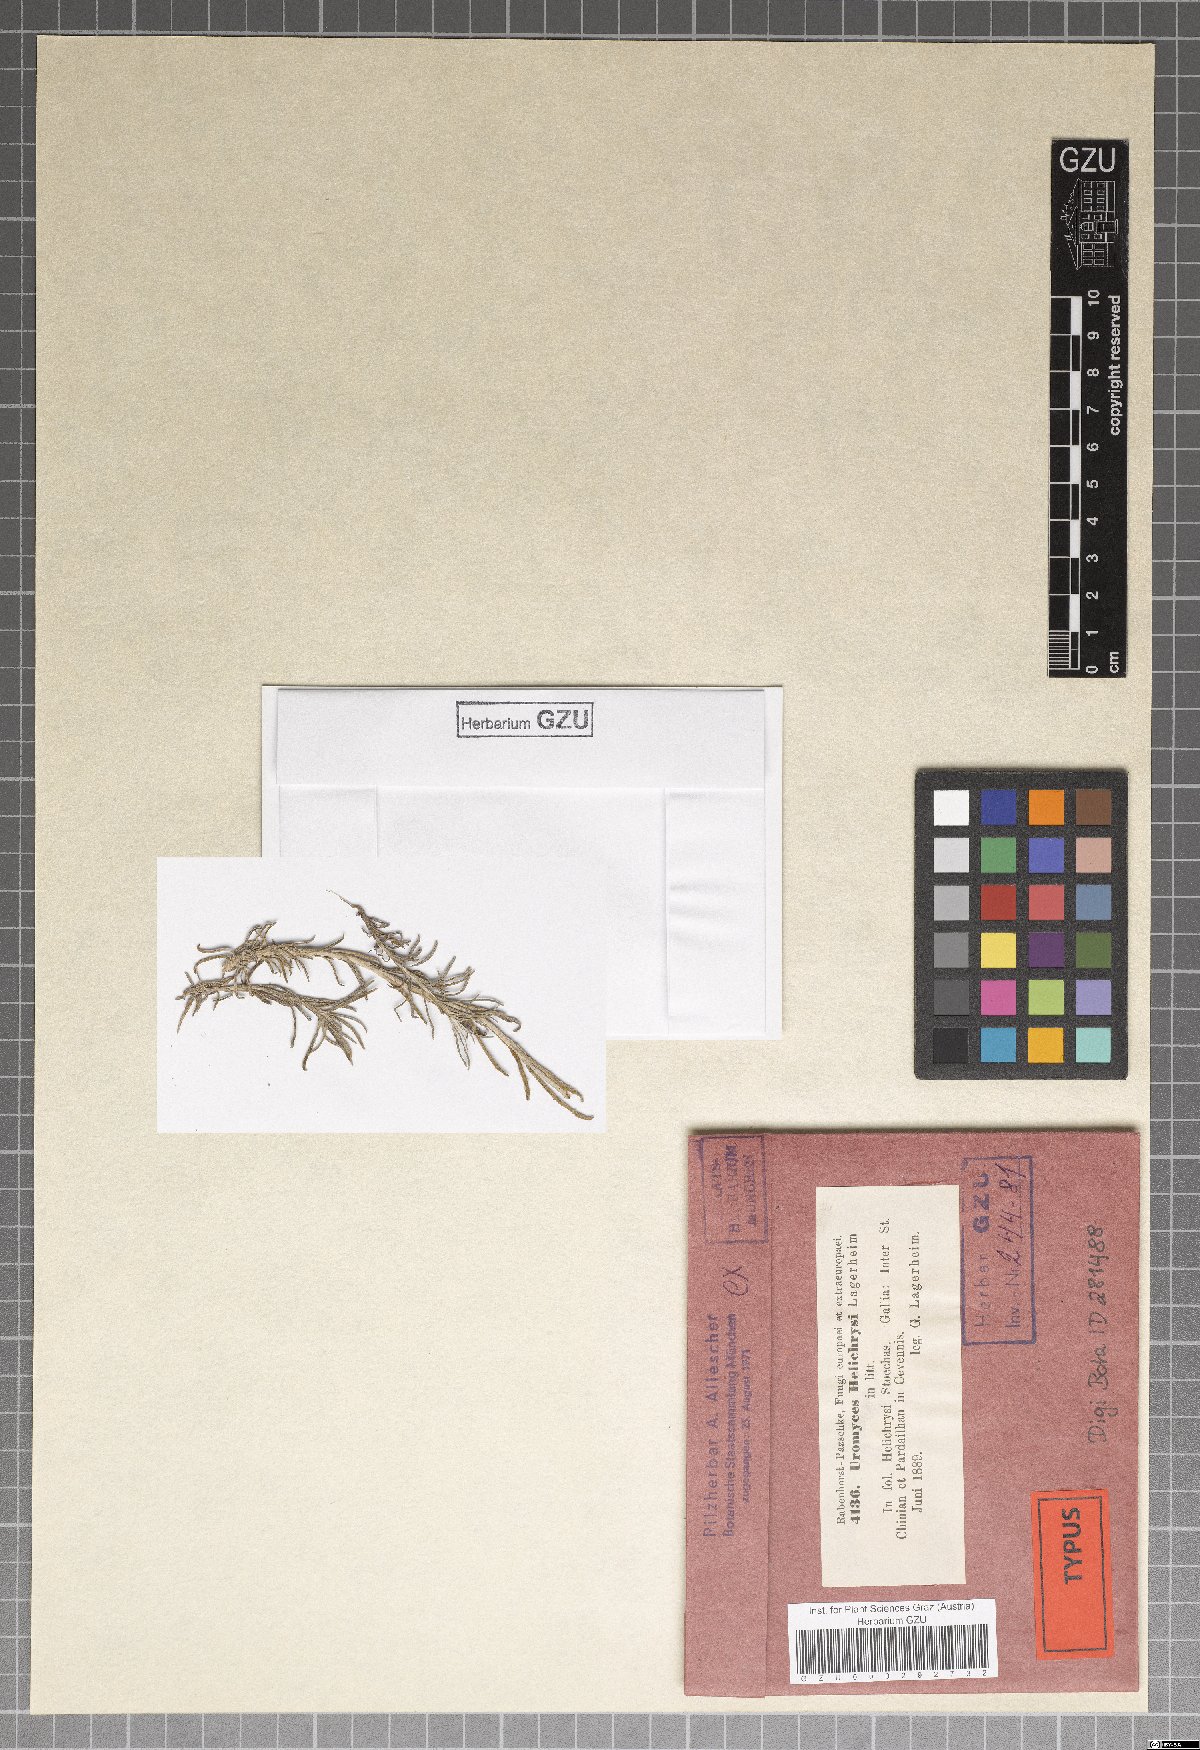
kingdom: Fungi
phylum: Basidiomycota
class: Pucciniomycetes
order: Pucciniales
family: Pucciniaceae
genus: Uromyces
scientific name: Uromyces helichrysi
